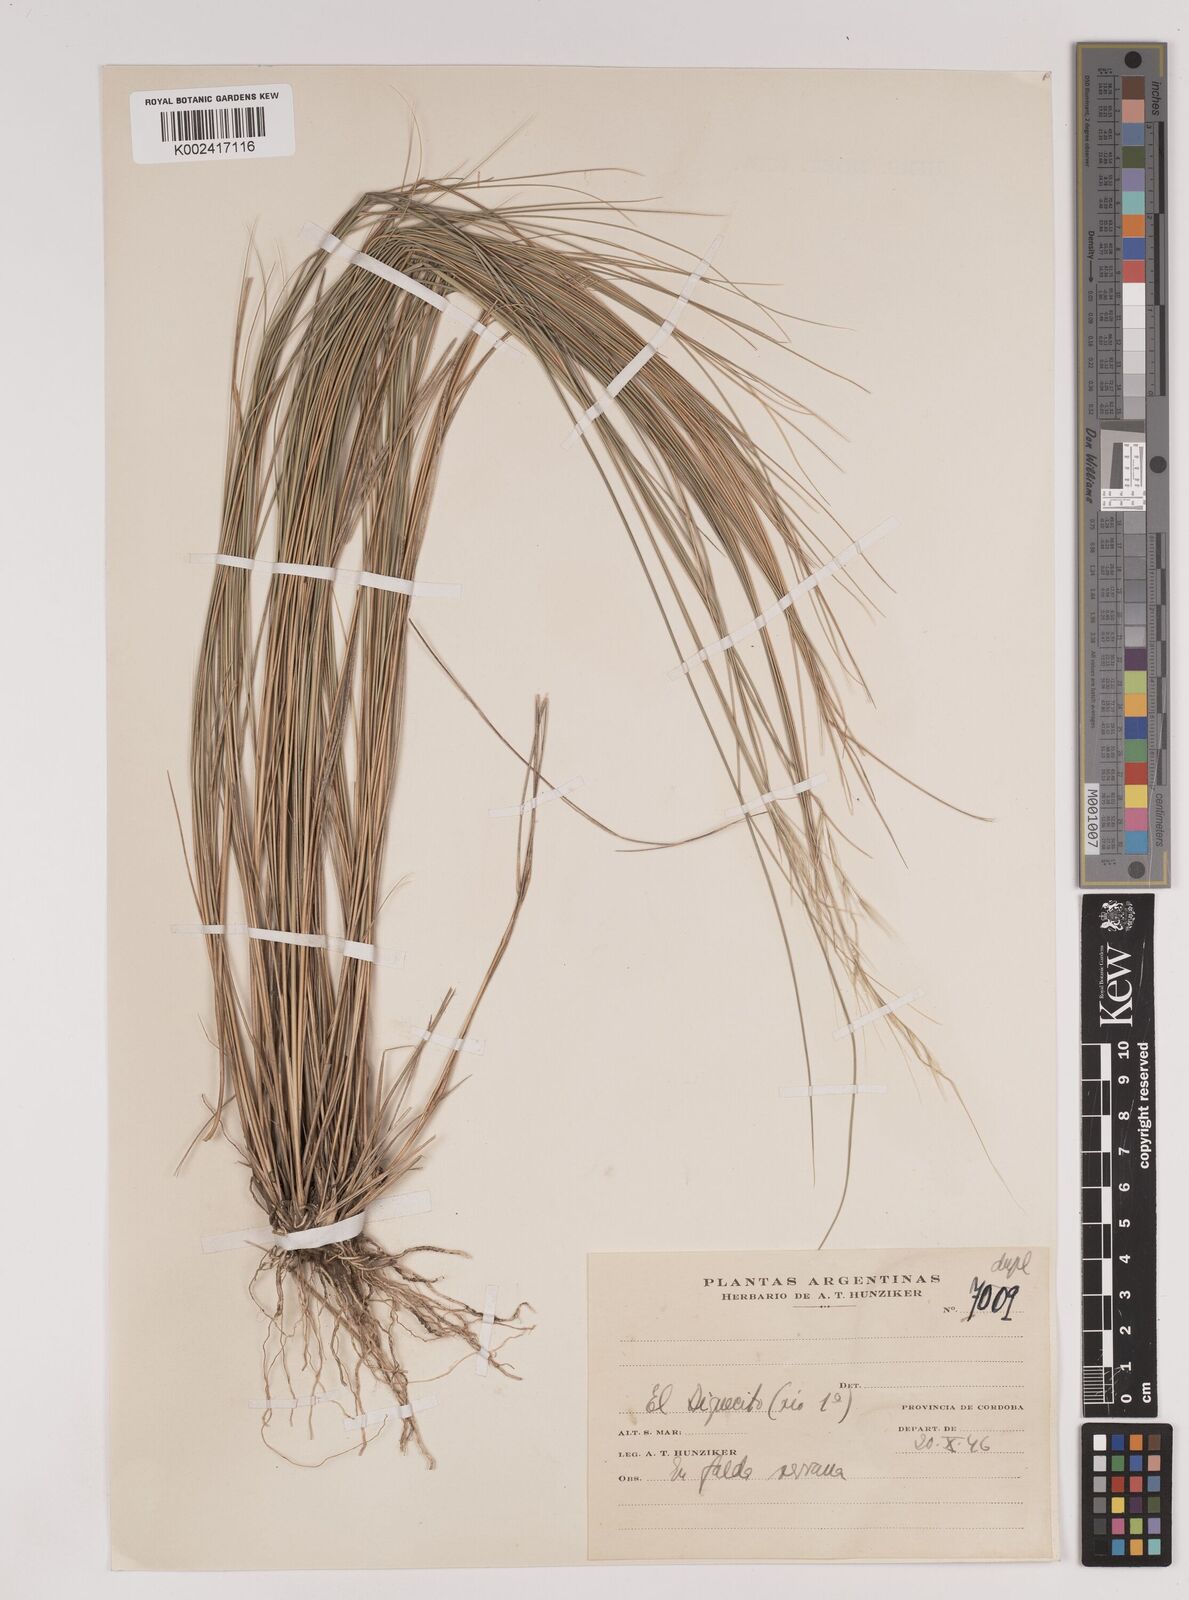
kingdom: Plantae
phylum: Tracheophyta
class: Liliopsida
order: Poales
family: Poaceae
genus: Stipa
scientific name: Stipa
